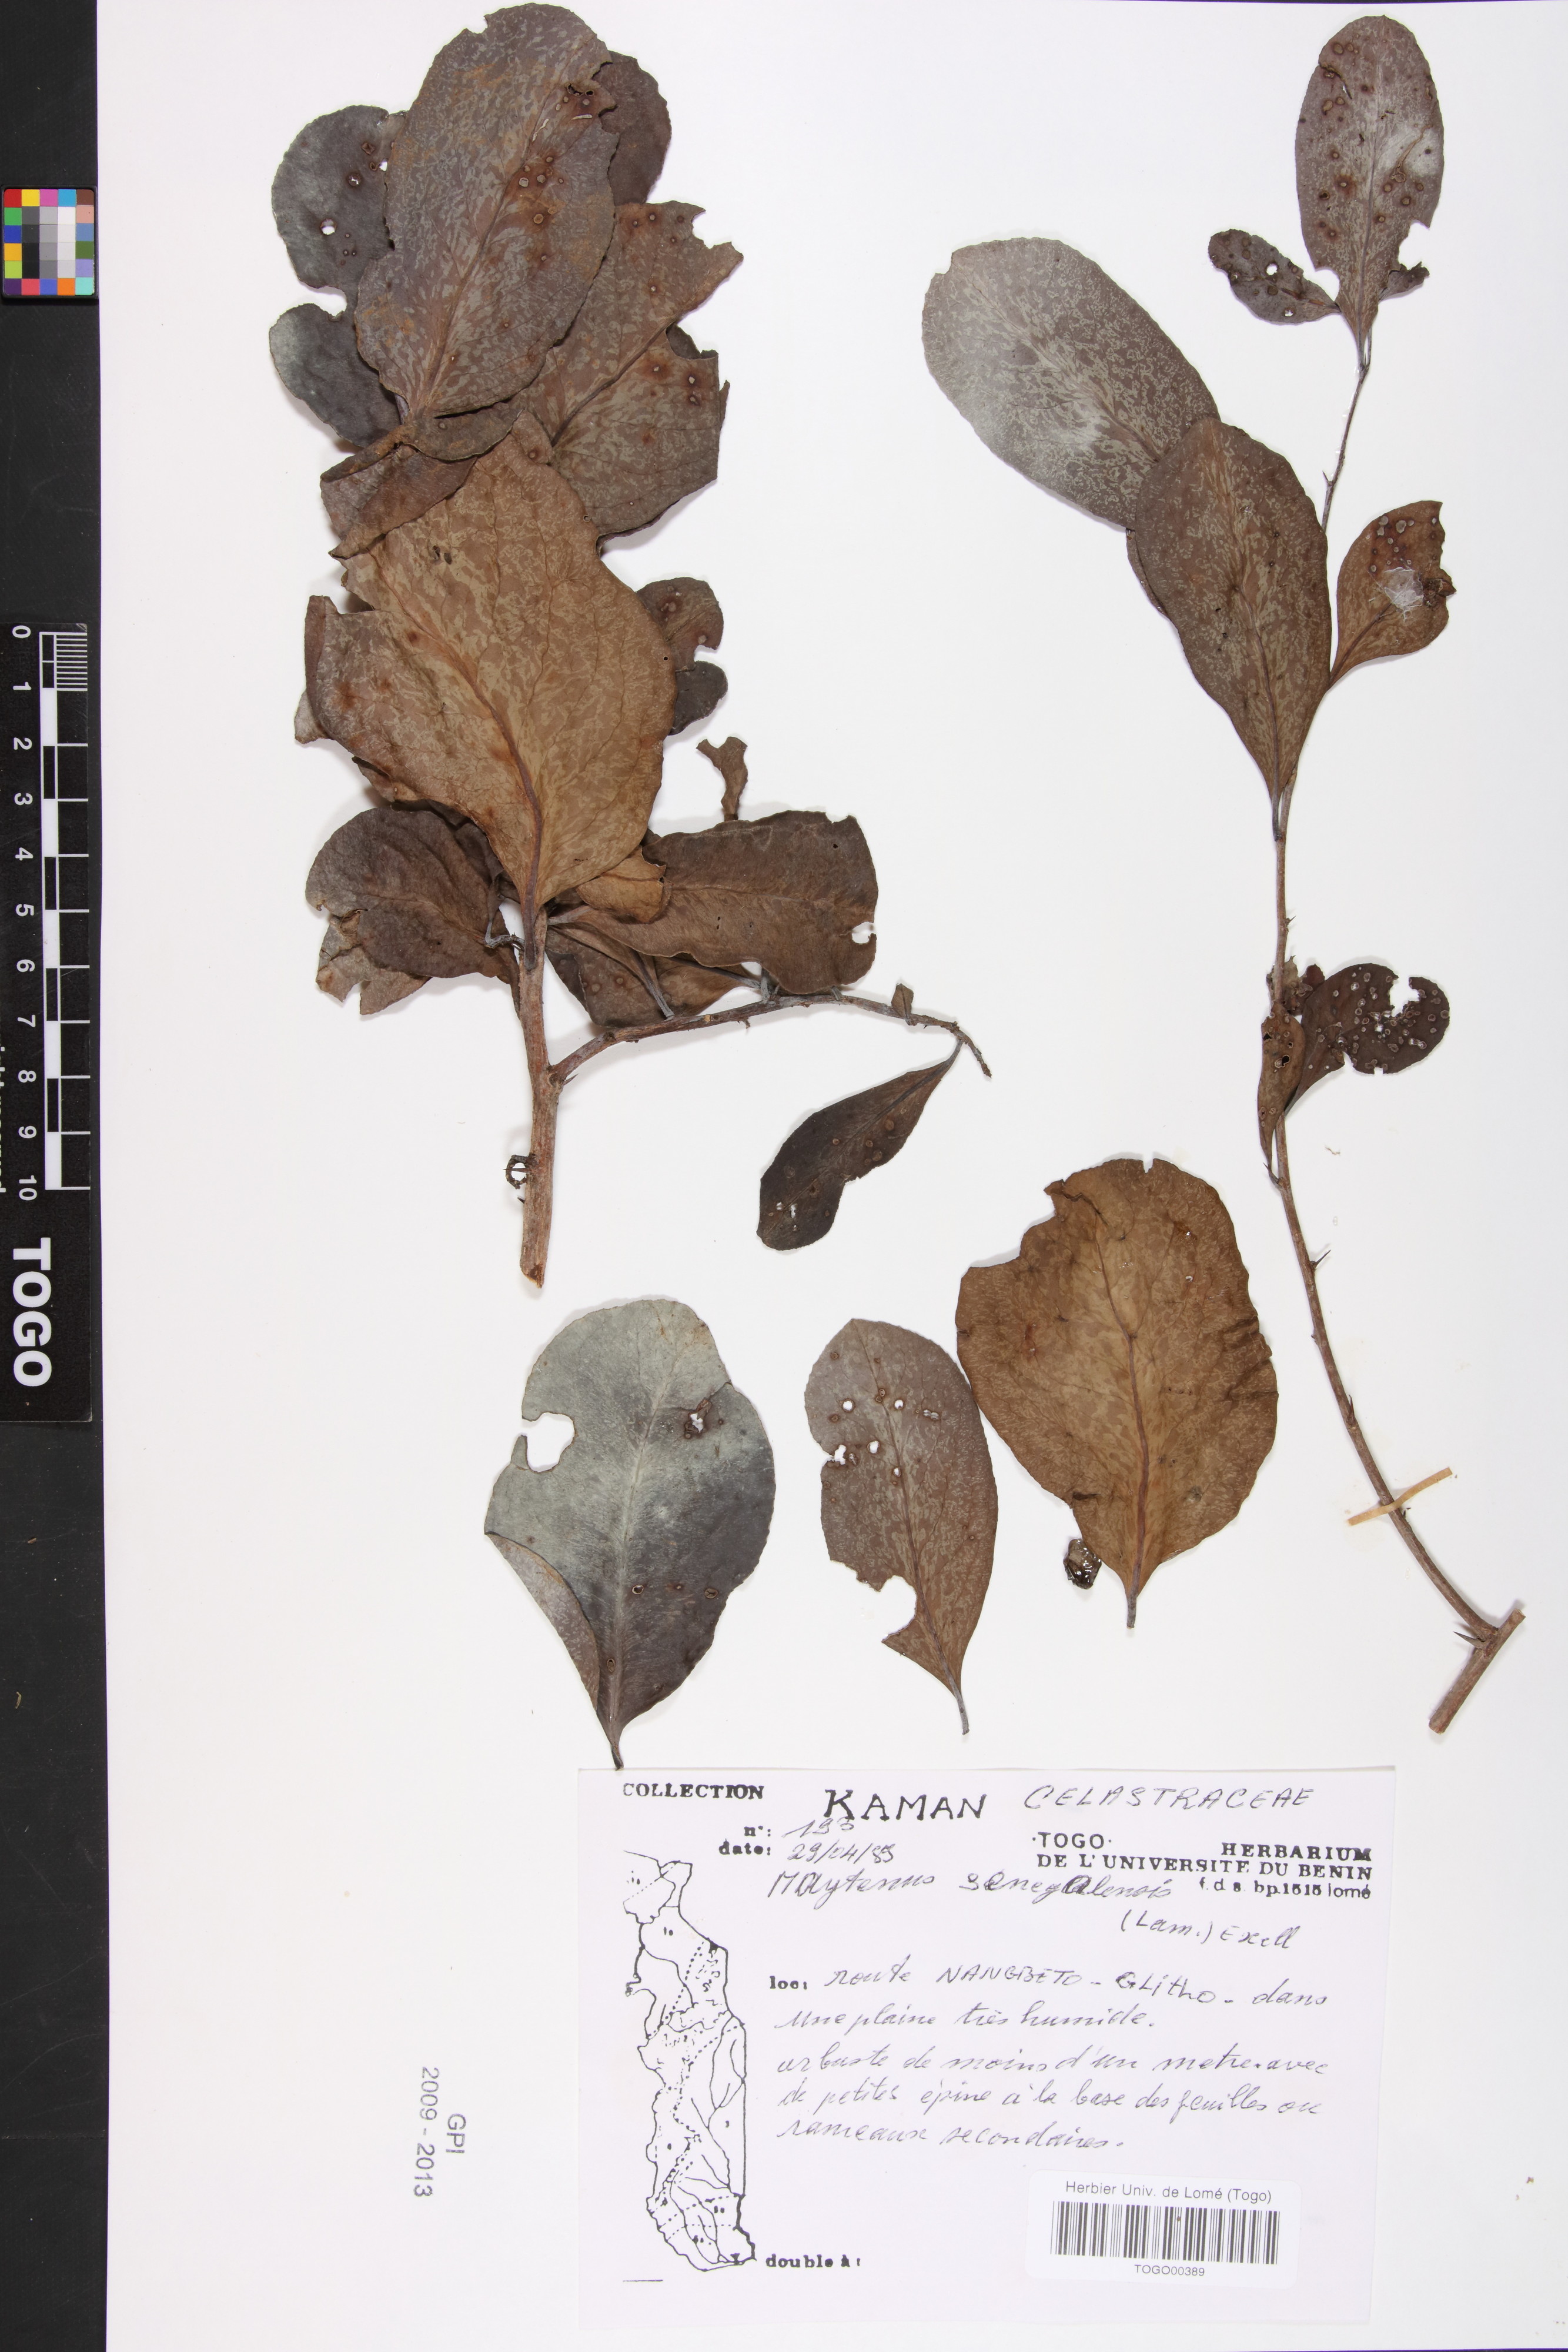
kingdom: Plantae
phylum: Tracheophyta
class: Magnoliopsida
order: Celastrales
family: Celastraceae
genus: Gymnosporia
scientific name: Gymnosporia senegalensis
